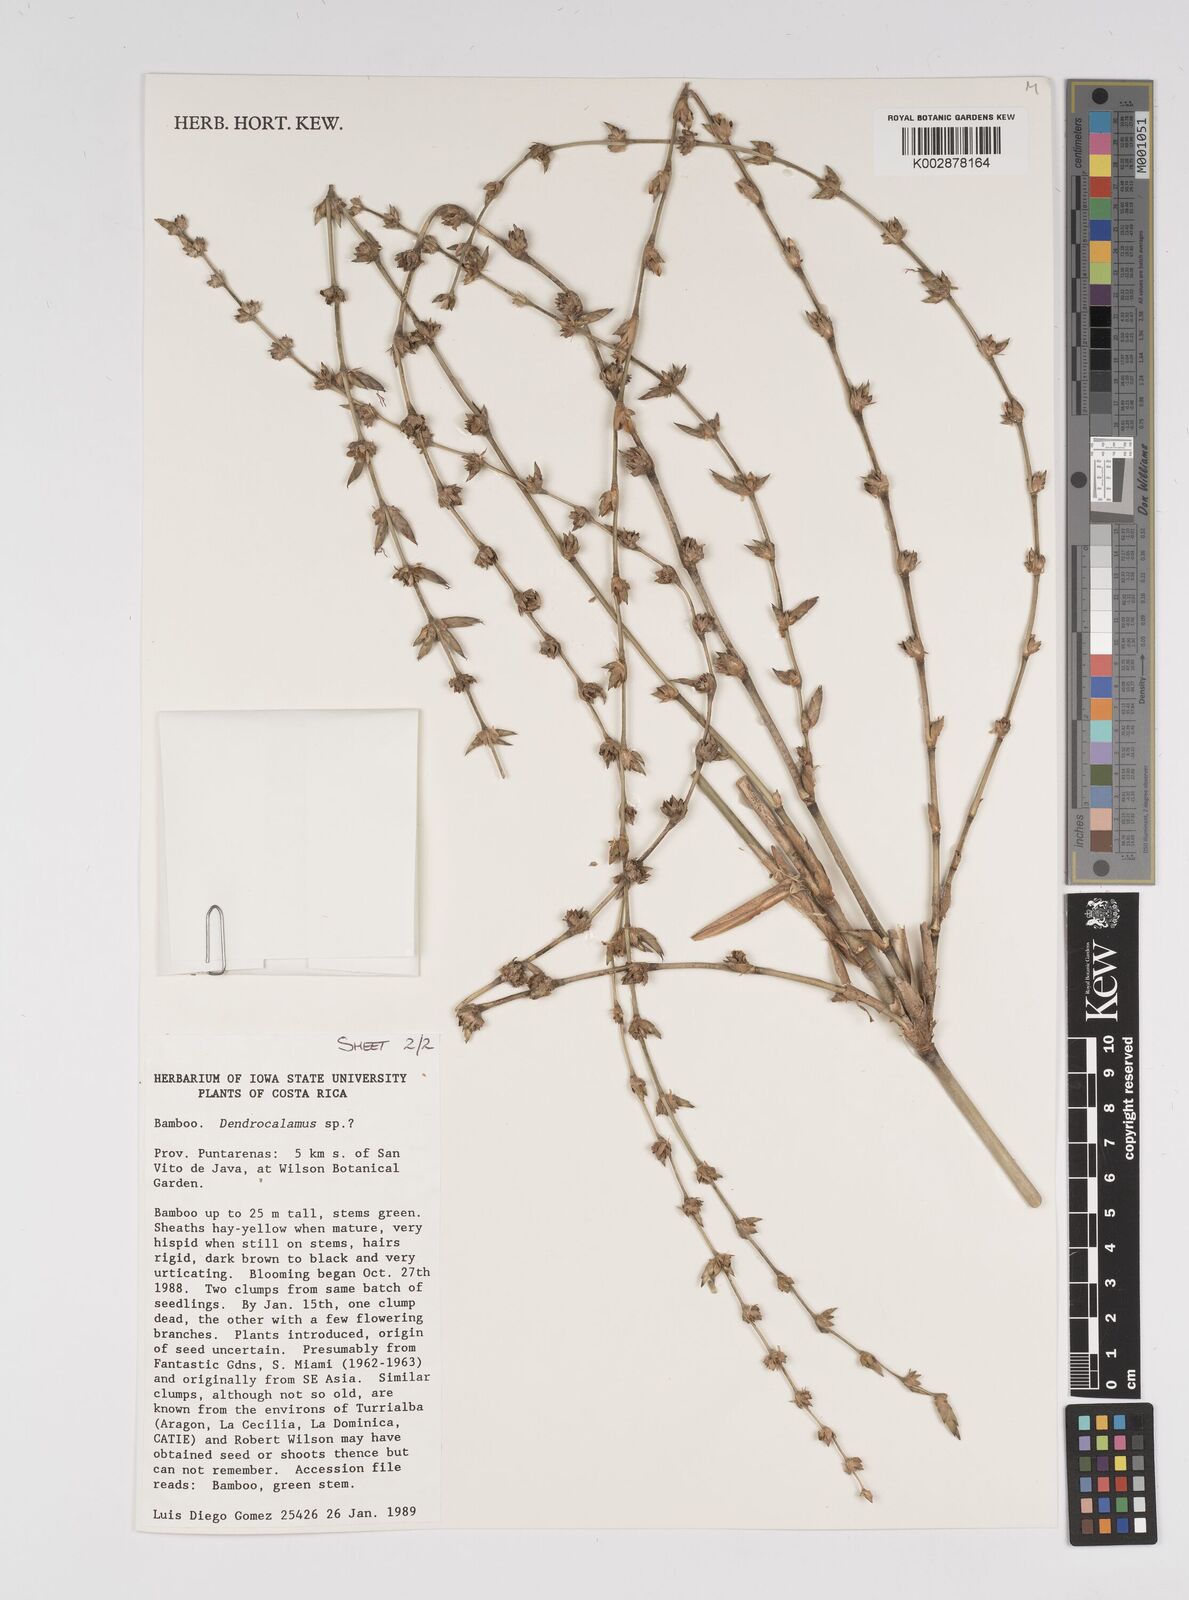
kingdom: Plantae
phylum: Tracheophyta
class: Liliopsida
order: Poales
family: Poaceae
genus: Bambusa
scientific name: Bambusa
